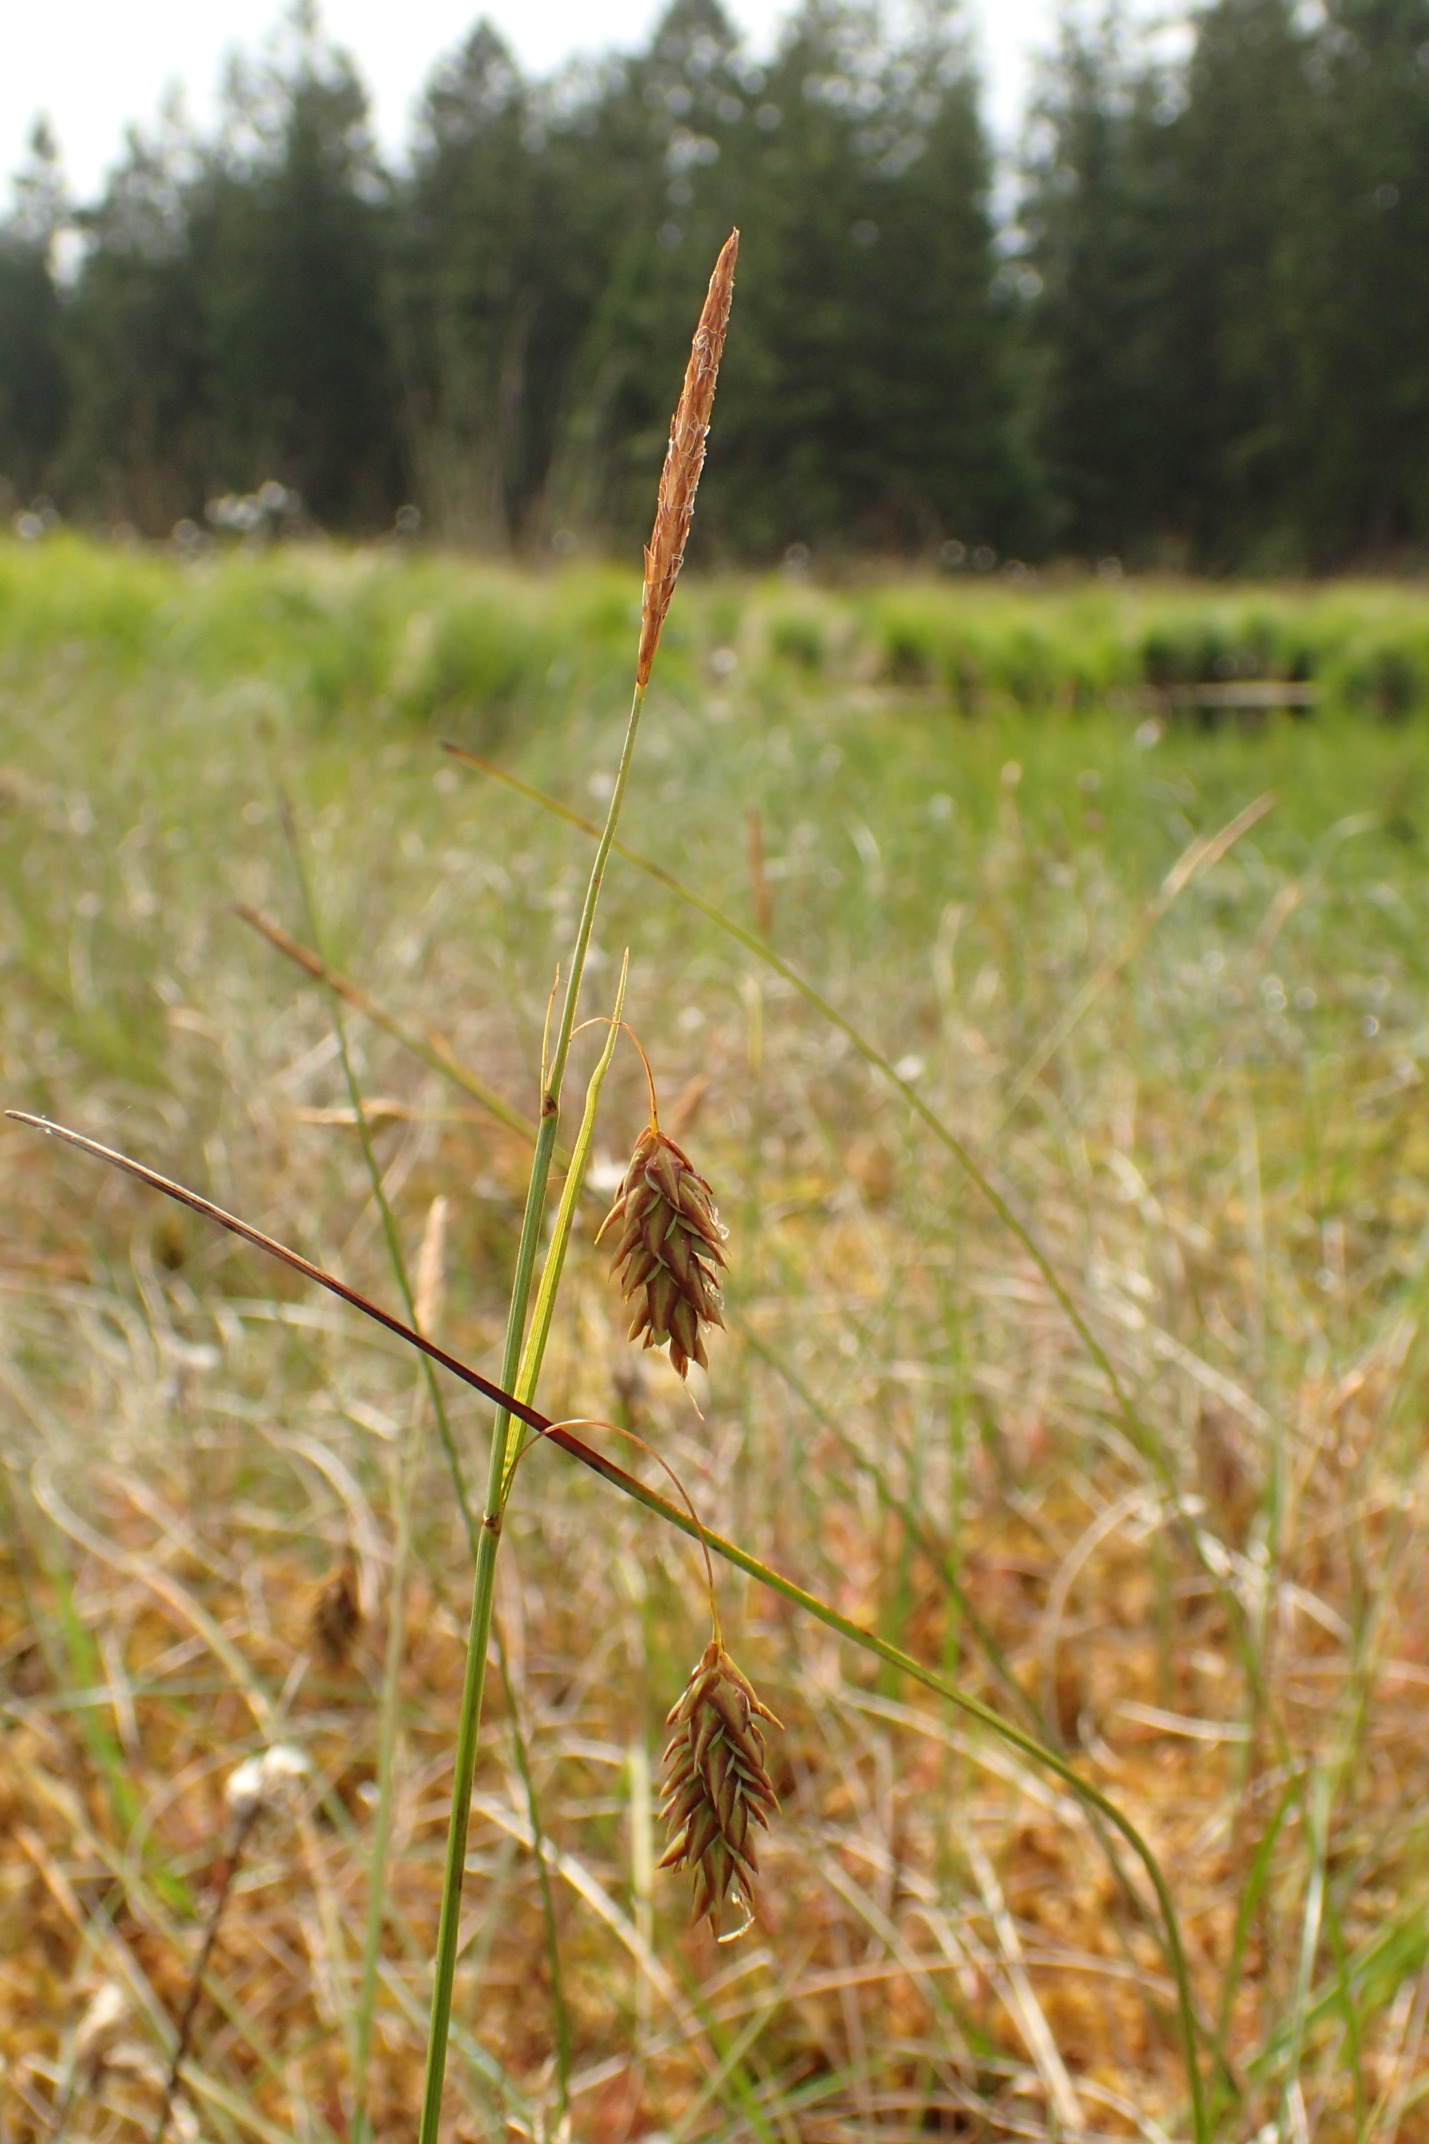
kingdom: Plantae
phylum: Tracheophyta
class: Liliopsida
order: Poales
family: Cyperaceae
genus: Carex
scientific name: Carex limosa
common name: Dynd-star
